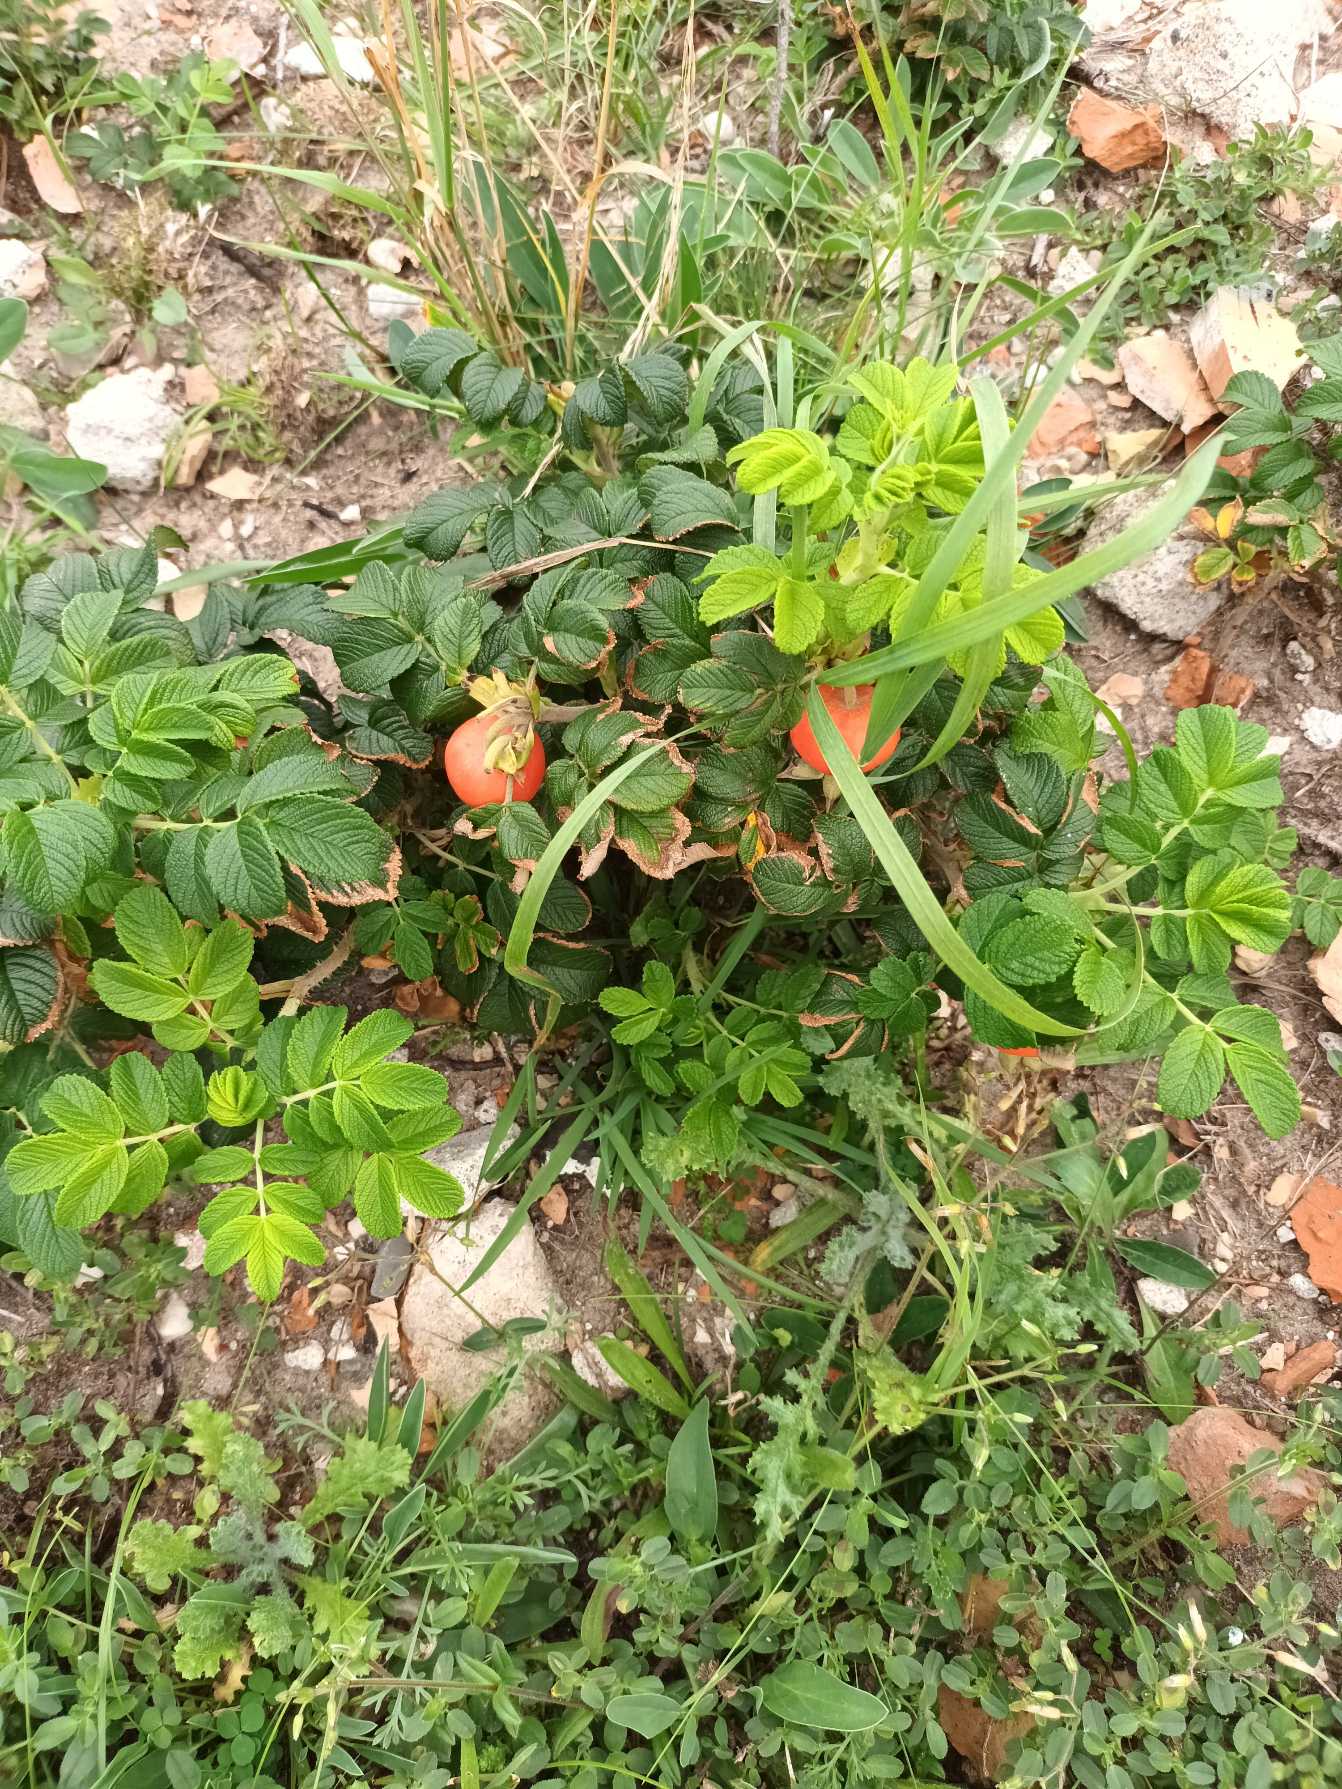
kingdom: Plantae
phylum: Tracheophyta
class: Magnoliopsida
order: Rosales
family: Rosaceae
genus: Rosa
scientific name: Rosa rugosa
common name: Rynket rose
